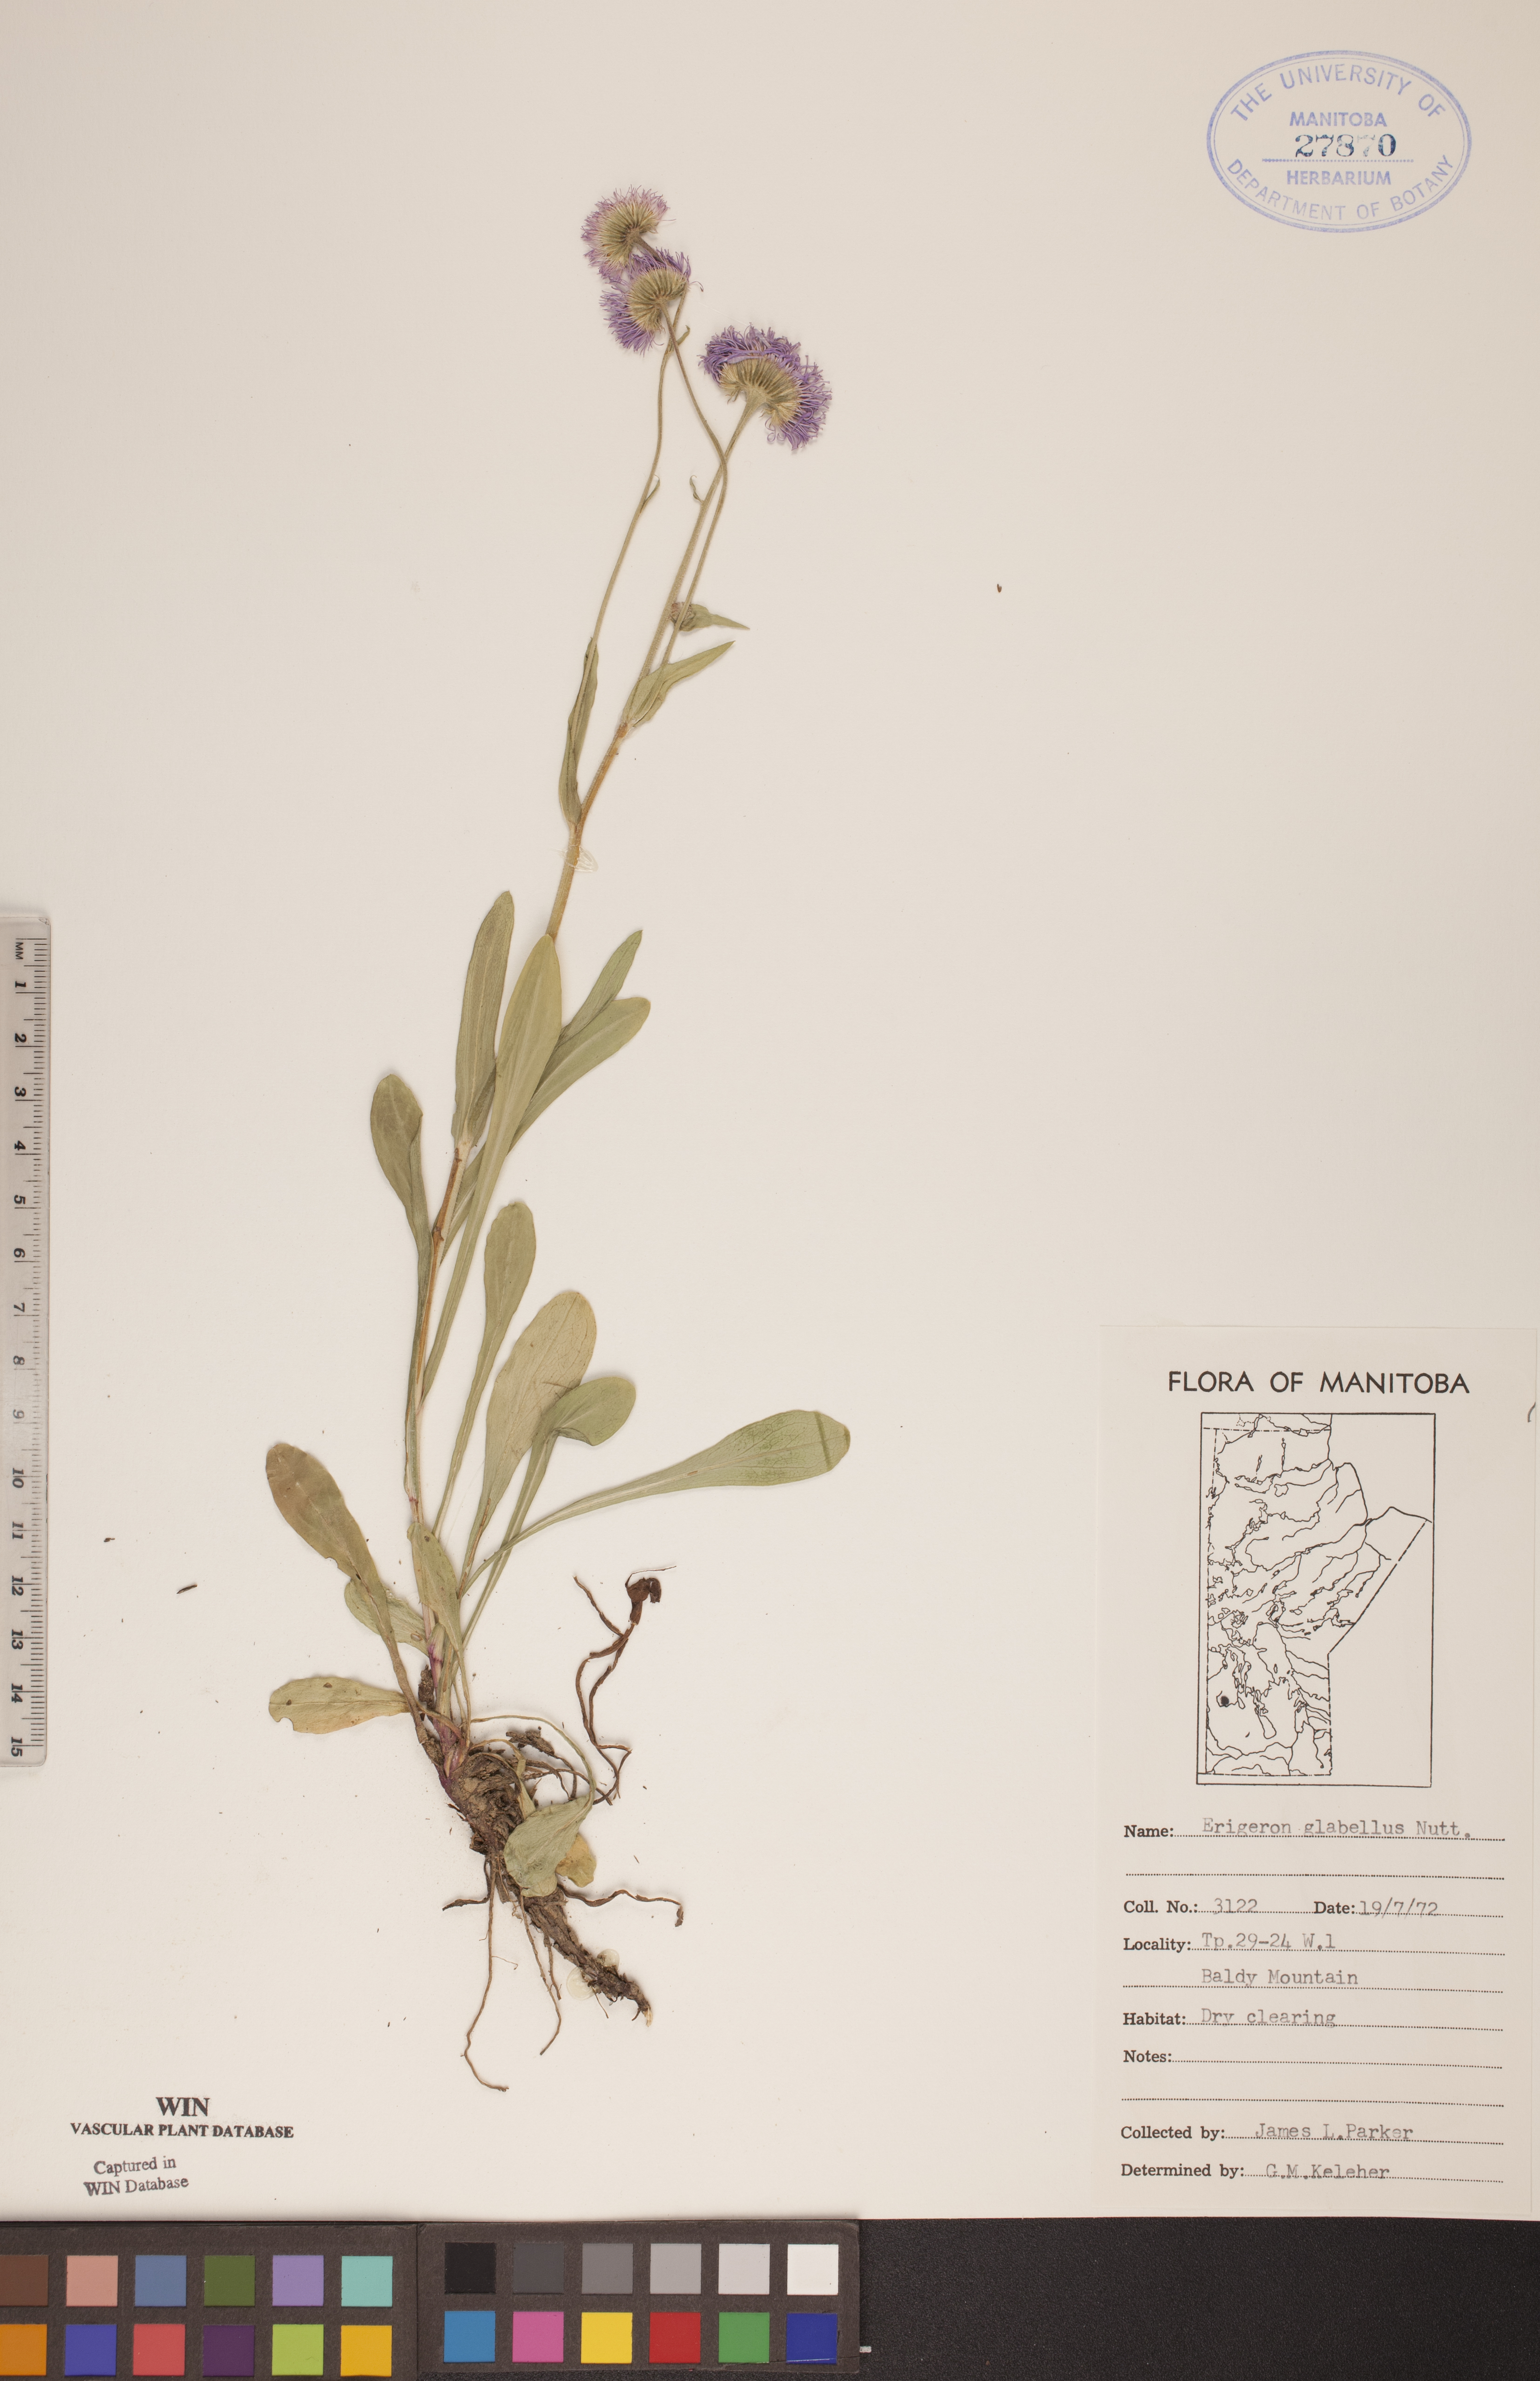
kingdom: Plantae
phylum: Tracheophyta
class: Magnoliopsida
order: Asterales
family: Asteraceae
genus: Erigeron
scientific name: Erigeron glabellus
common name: Smooth fleabane
